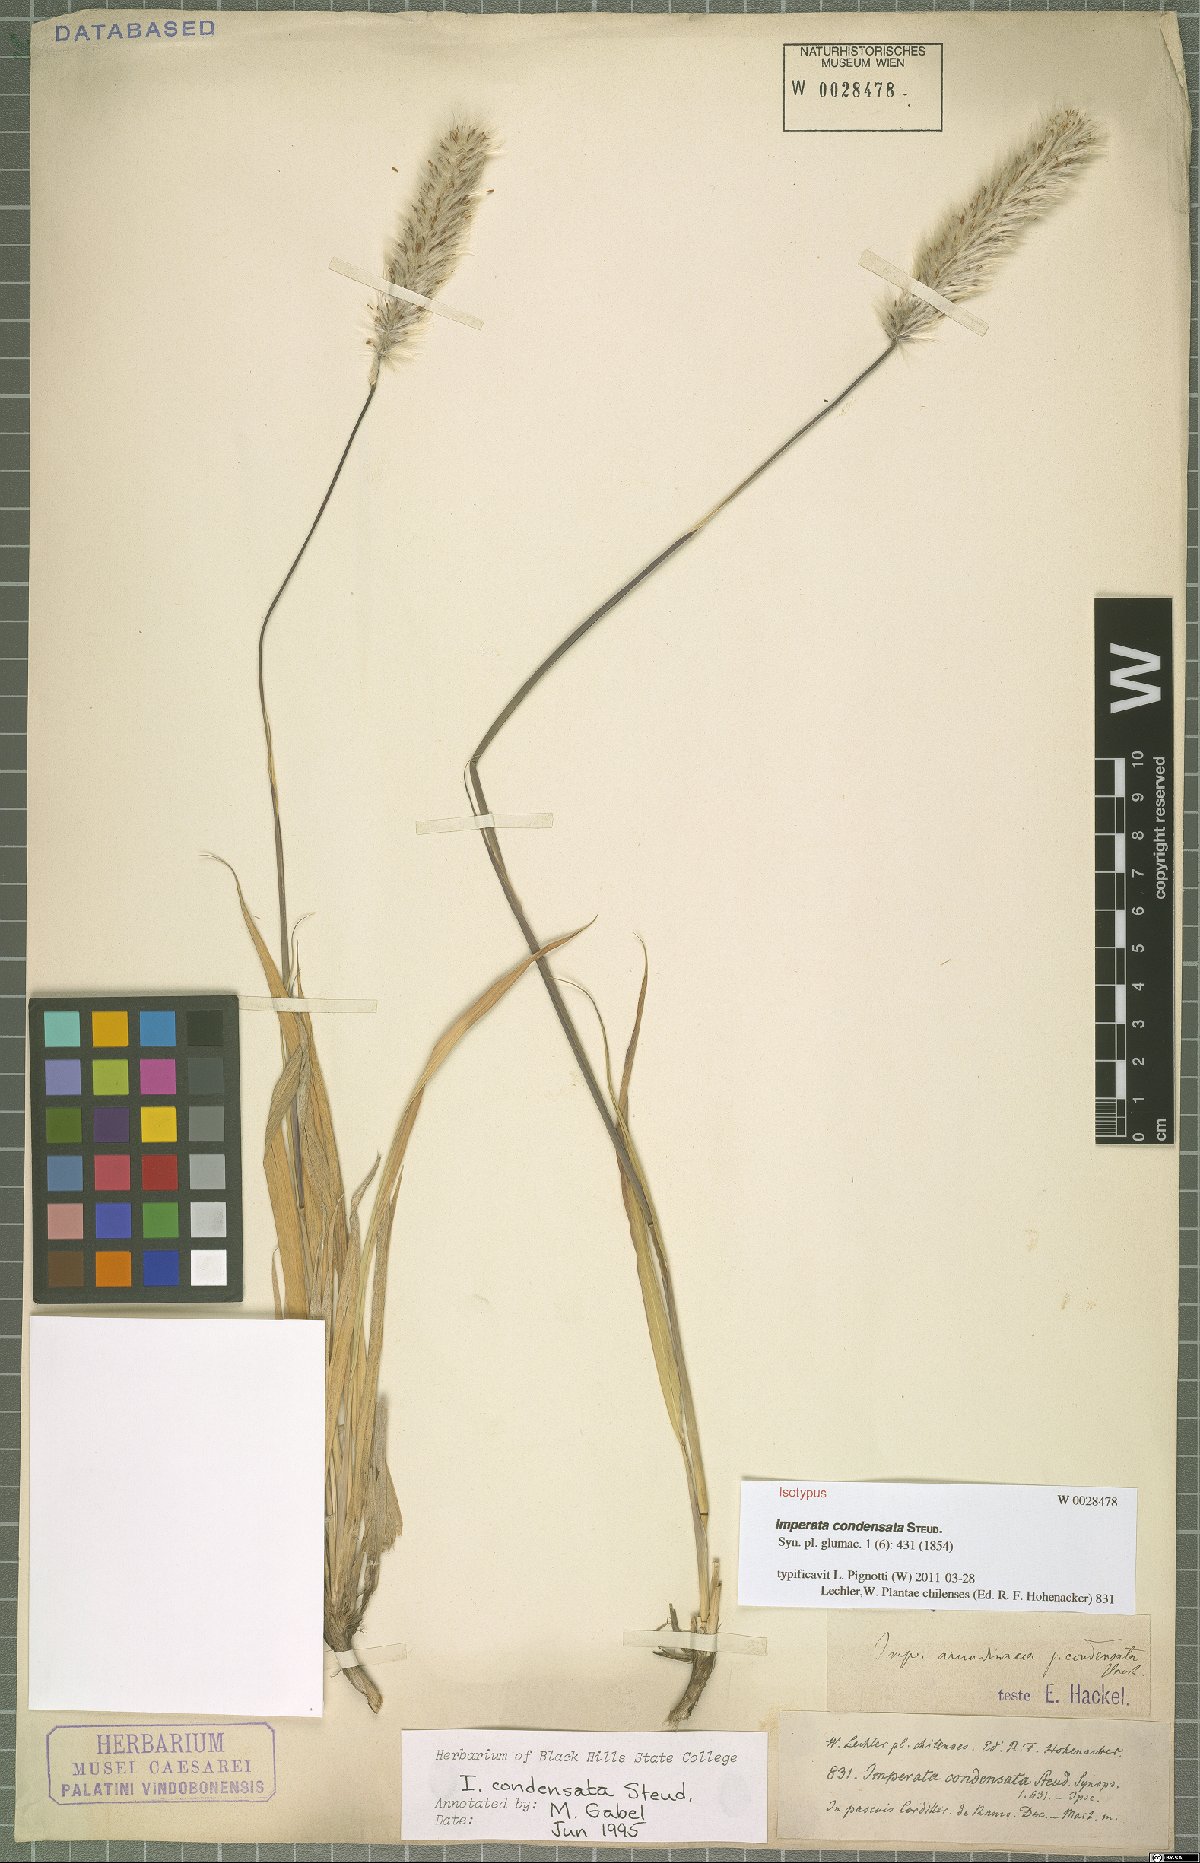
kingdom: Plantae
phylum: Tracheophyta
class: Liliopsida
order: Poales
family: Poaceae
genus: Imperata
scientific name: Imperata condensata
